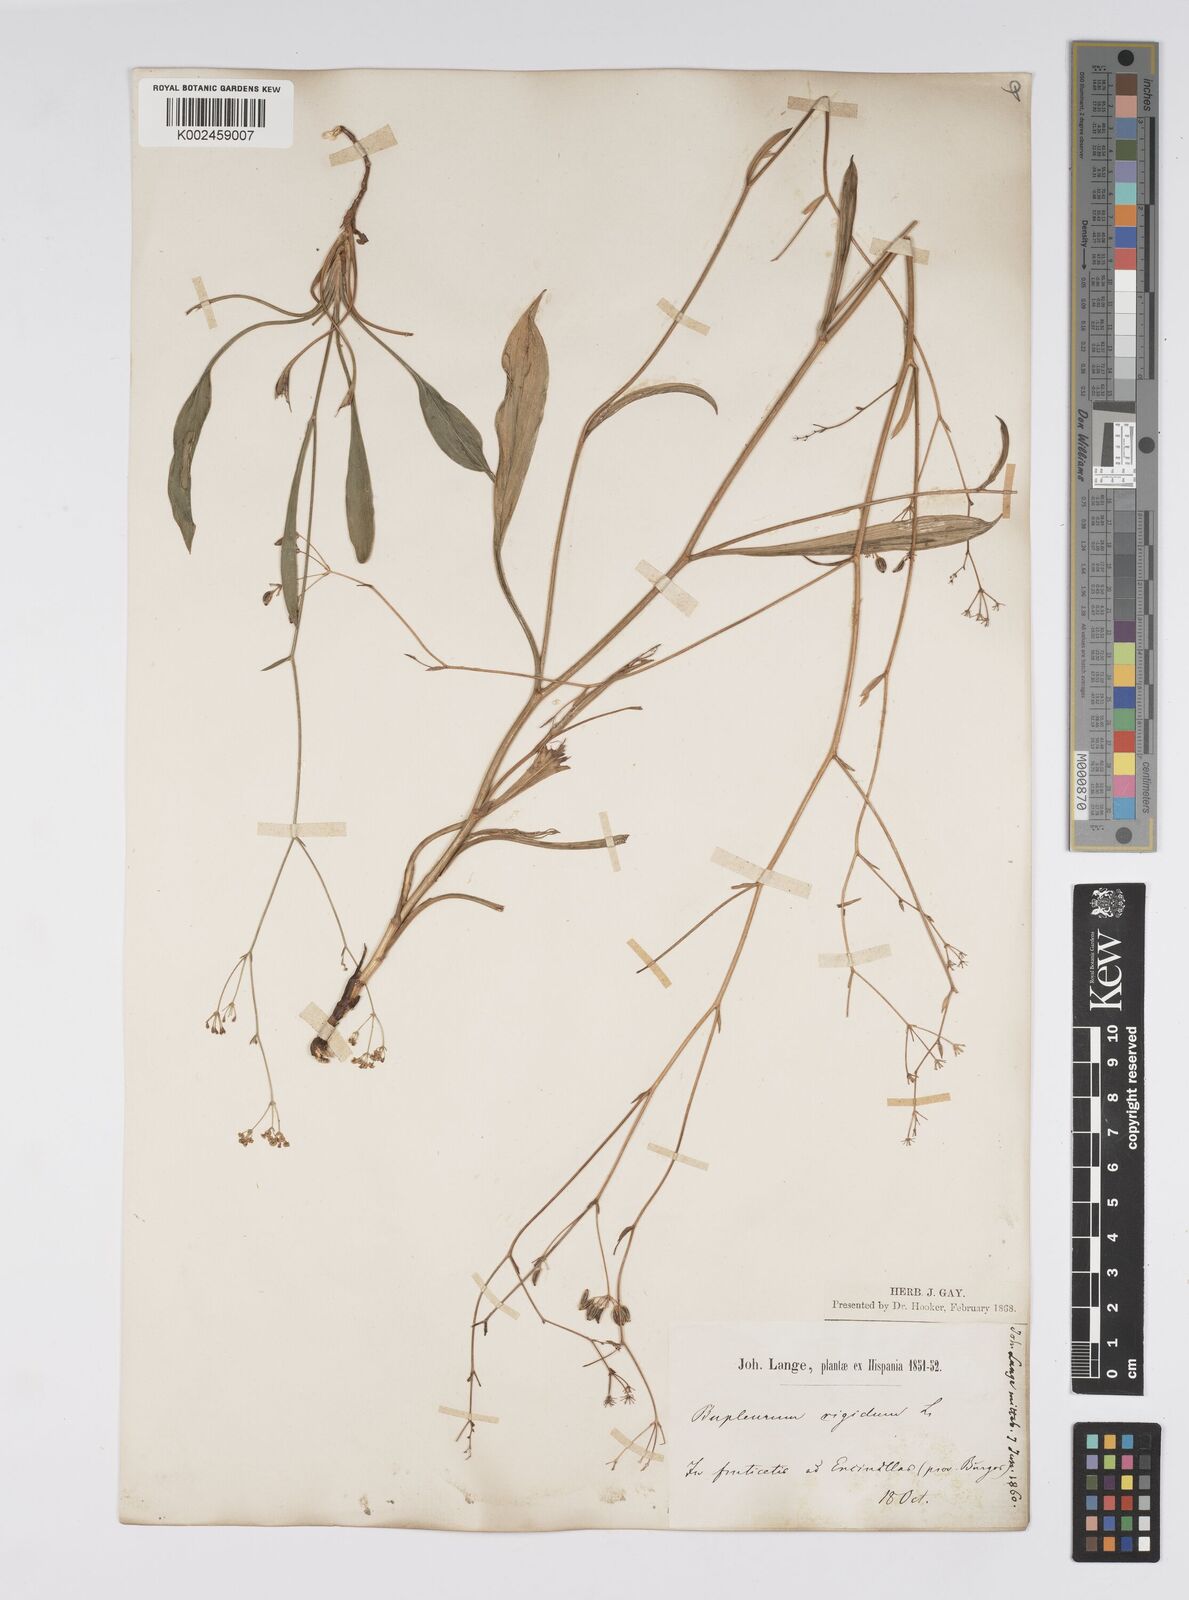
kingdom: Plantae
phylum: Tracheophyta
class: Magnoliopsida
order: Apiales
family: Apiaceae
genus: Bupleurum
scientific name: Bupleurum rigidum
